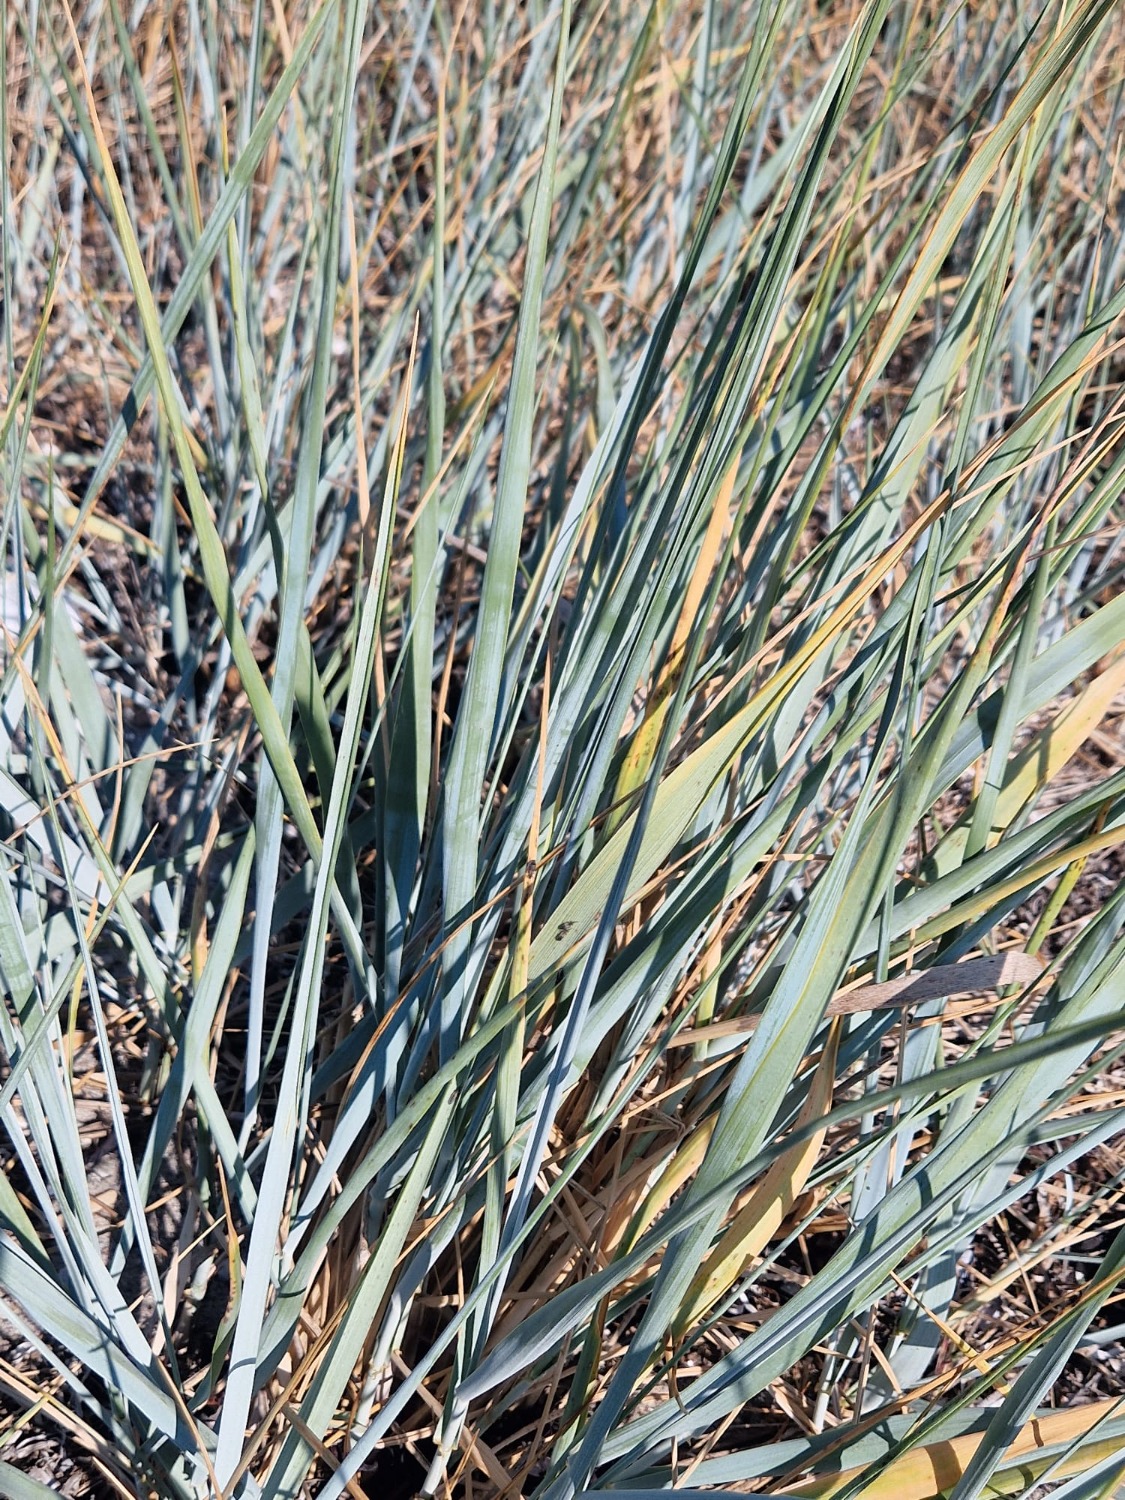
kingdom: Plantae
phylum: Tracheophyta
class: Liliopsida
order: Poales
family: Poaceae
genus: Leymus
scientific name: Leymus arenarius
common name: Marehalm
